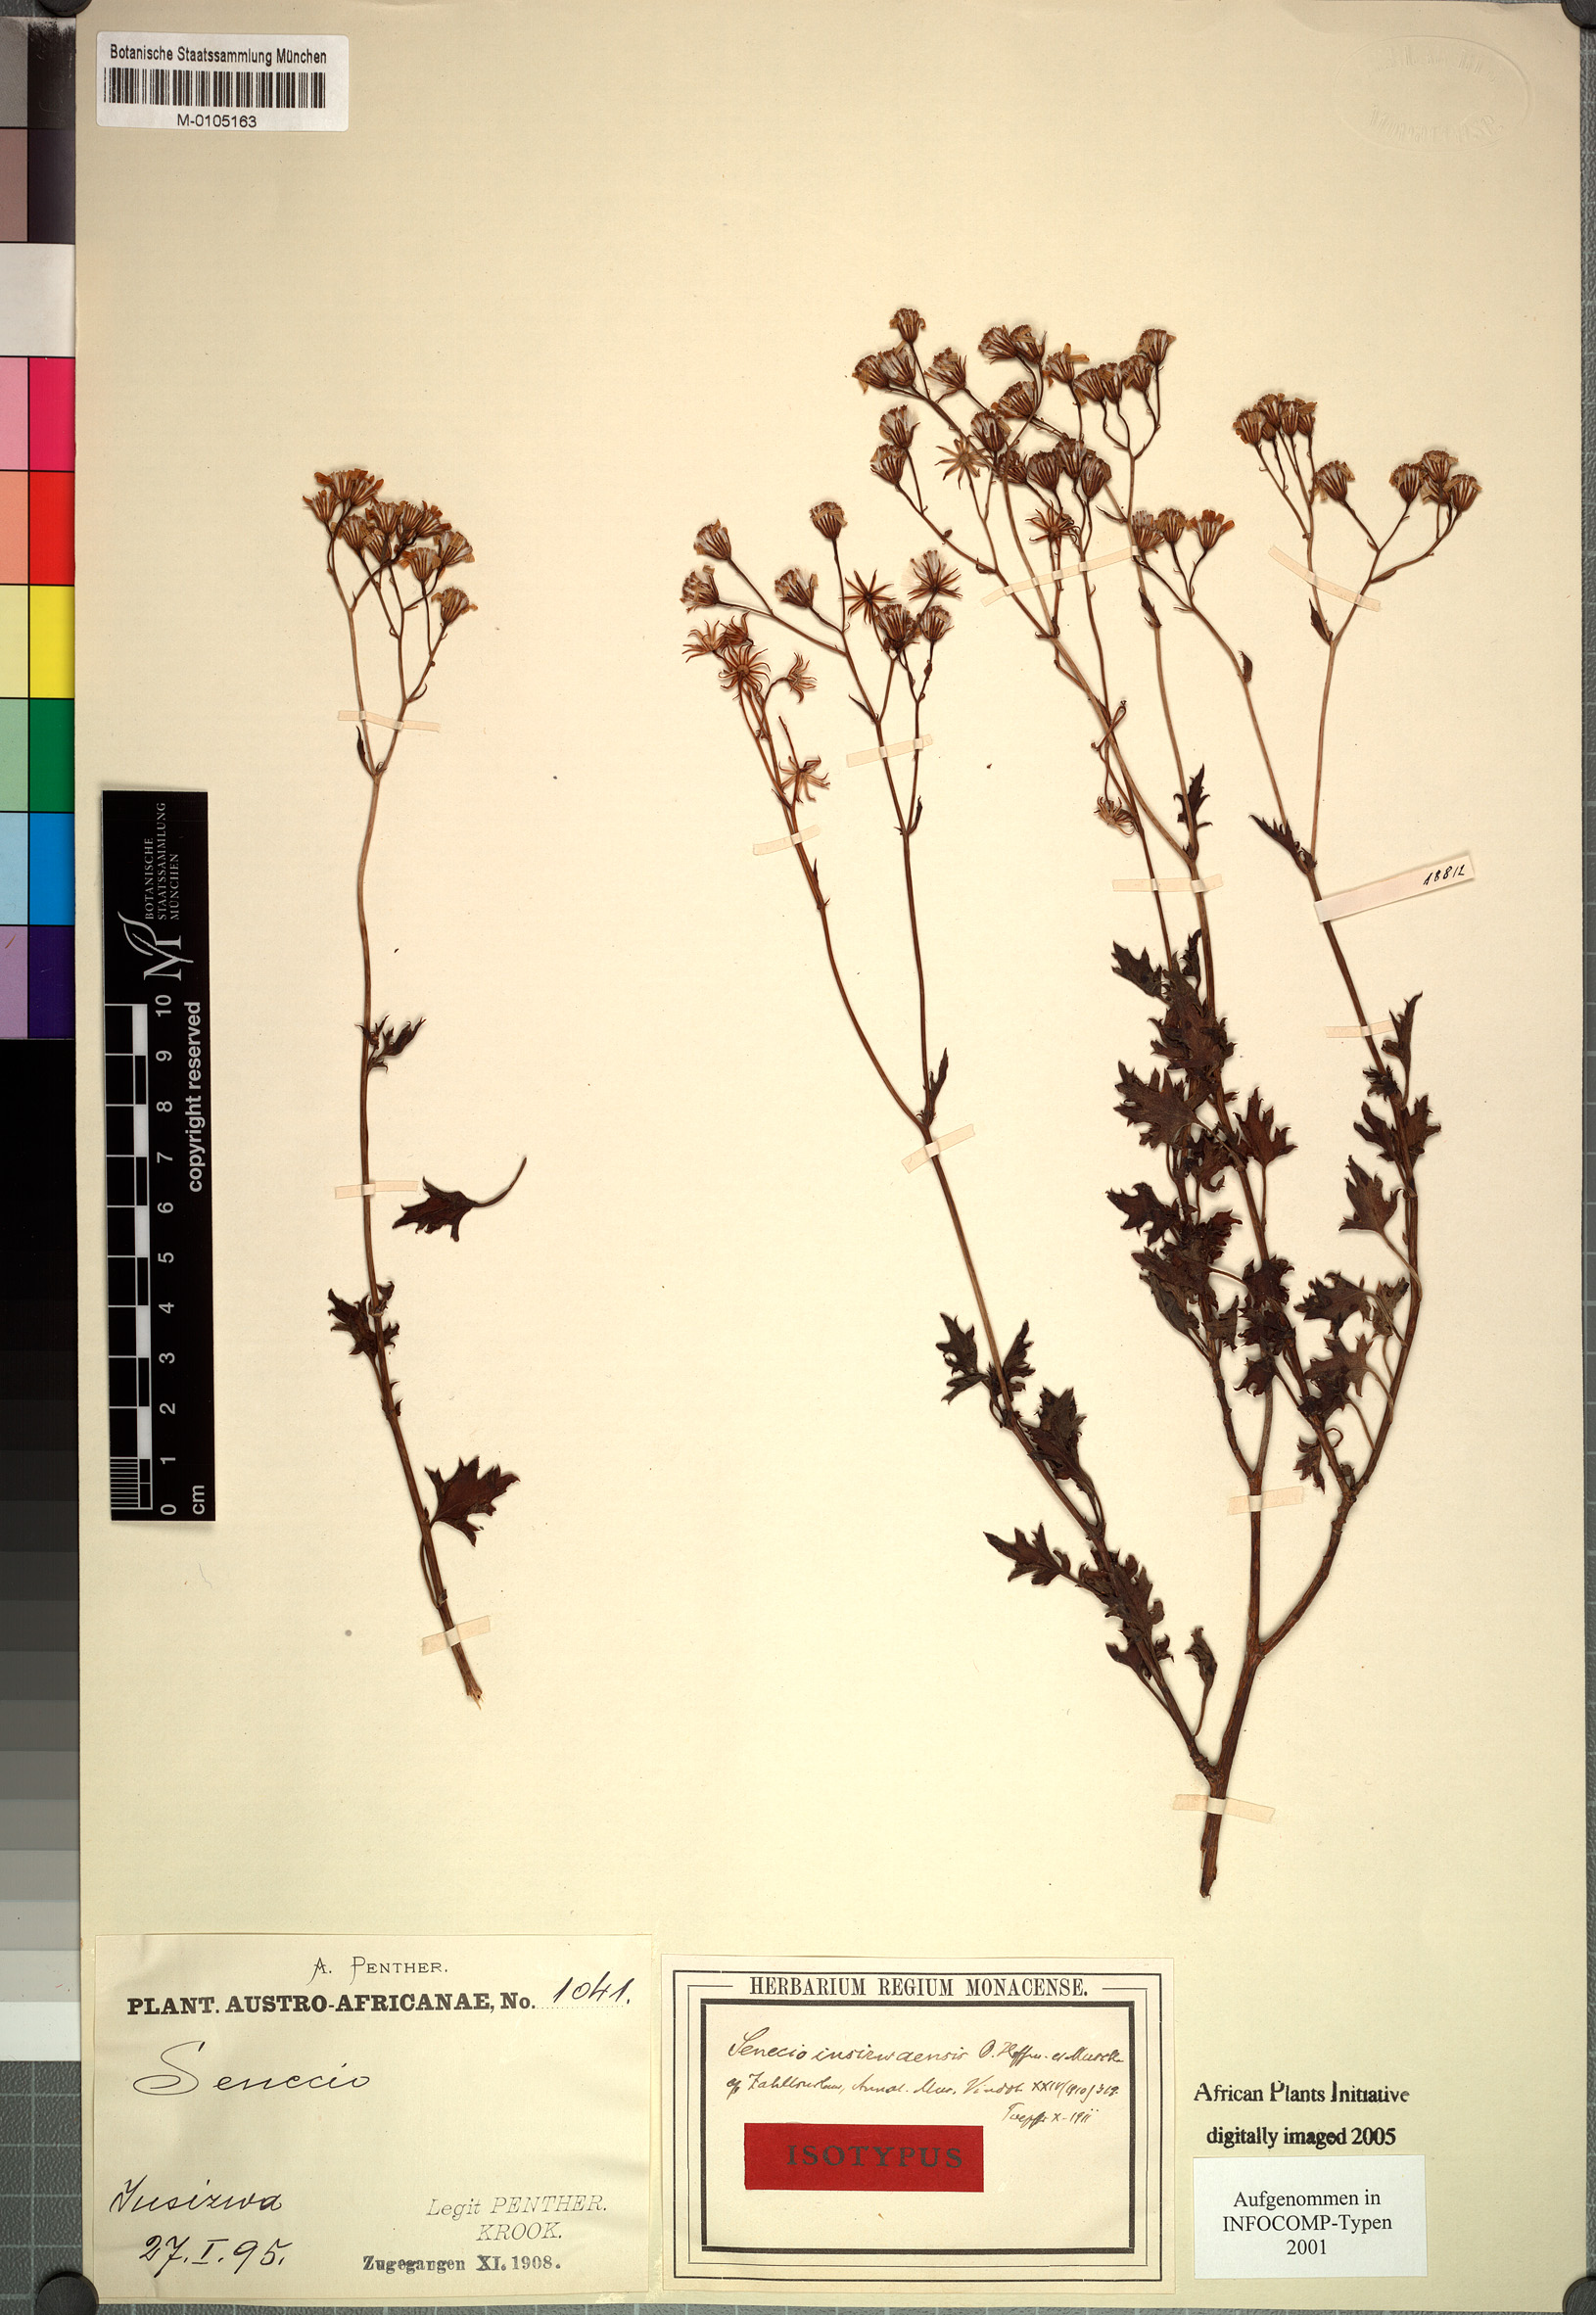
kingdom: Plantae
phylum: Tracheophyta
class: Magnoliopsida
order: Asterales
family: Asteraceae
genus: Senecio
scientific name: Senecio insizwaensis
